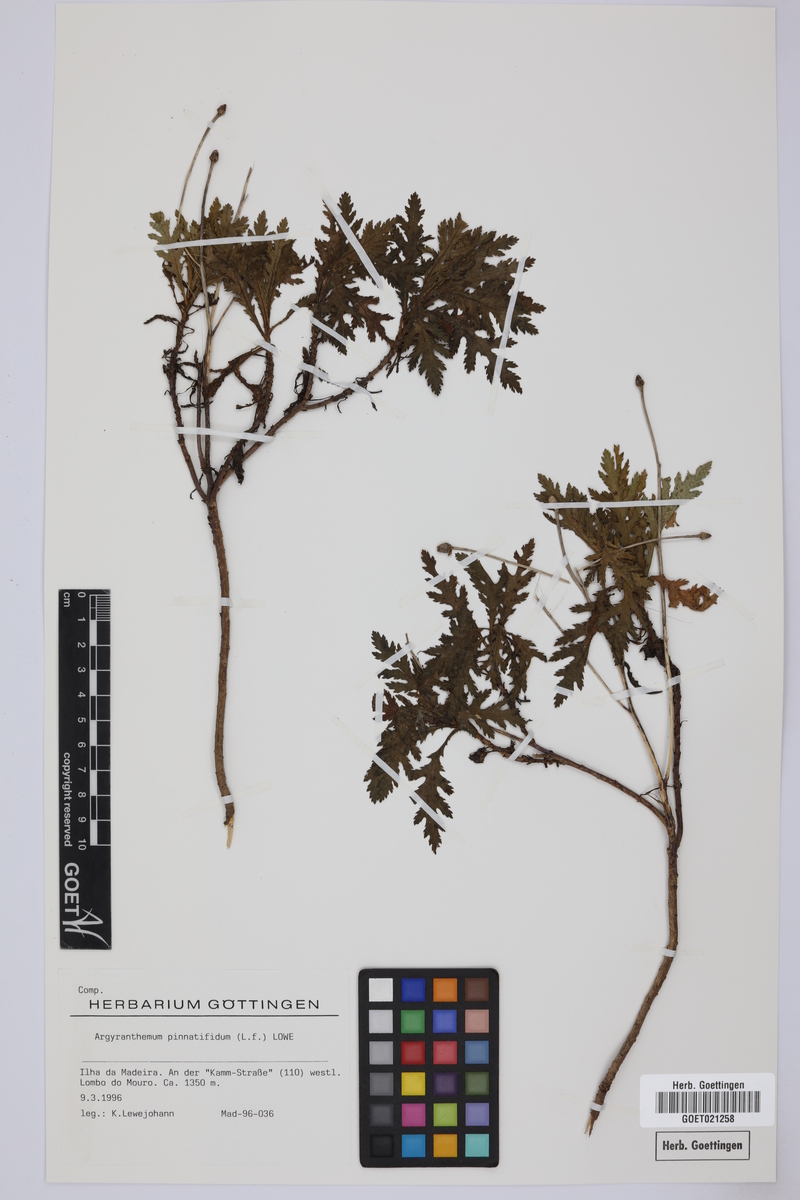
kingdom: Plantae
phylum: Tracheophyta
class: Magnoliopsida
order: Asterales
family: Asteraceae
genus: Argyranthemum
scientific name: Argyranthemum pinnatifidum
